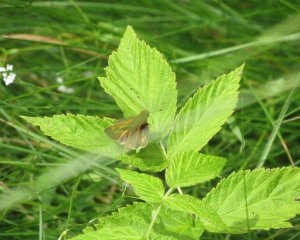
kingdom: Animalia
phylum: Arthropoda
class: Insecta
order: Lepidoptera
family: Hesperiidae
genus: Polites
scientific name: Polites
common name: Long Dash Skipper
